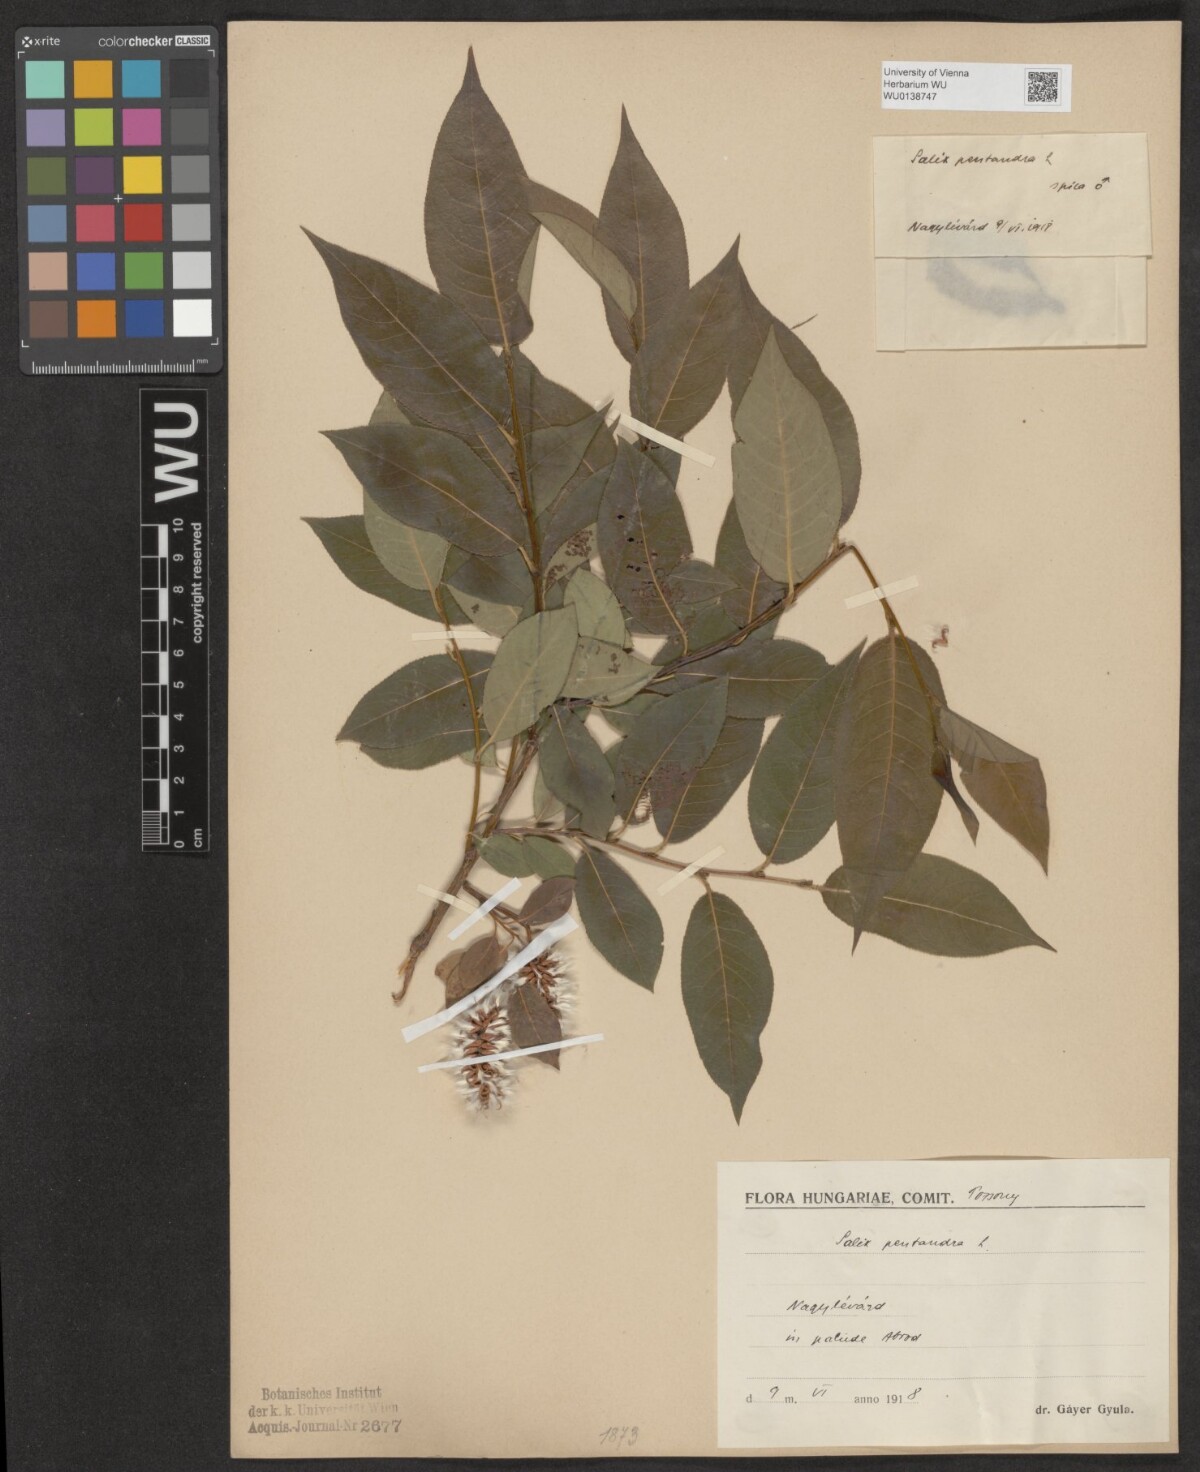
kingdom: Plantae
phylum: Tracheophyta
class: Magnoliopsida
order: Malpighiales
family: Salicaceae
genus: Salix
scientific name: Salix pentandra
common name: Bay willow
